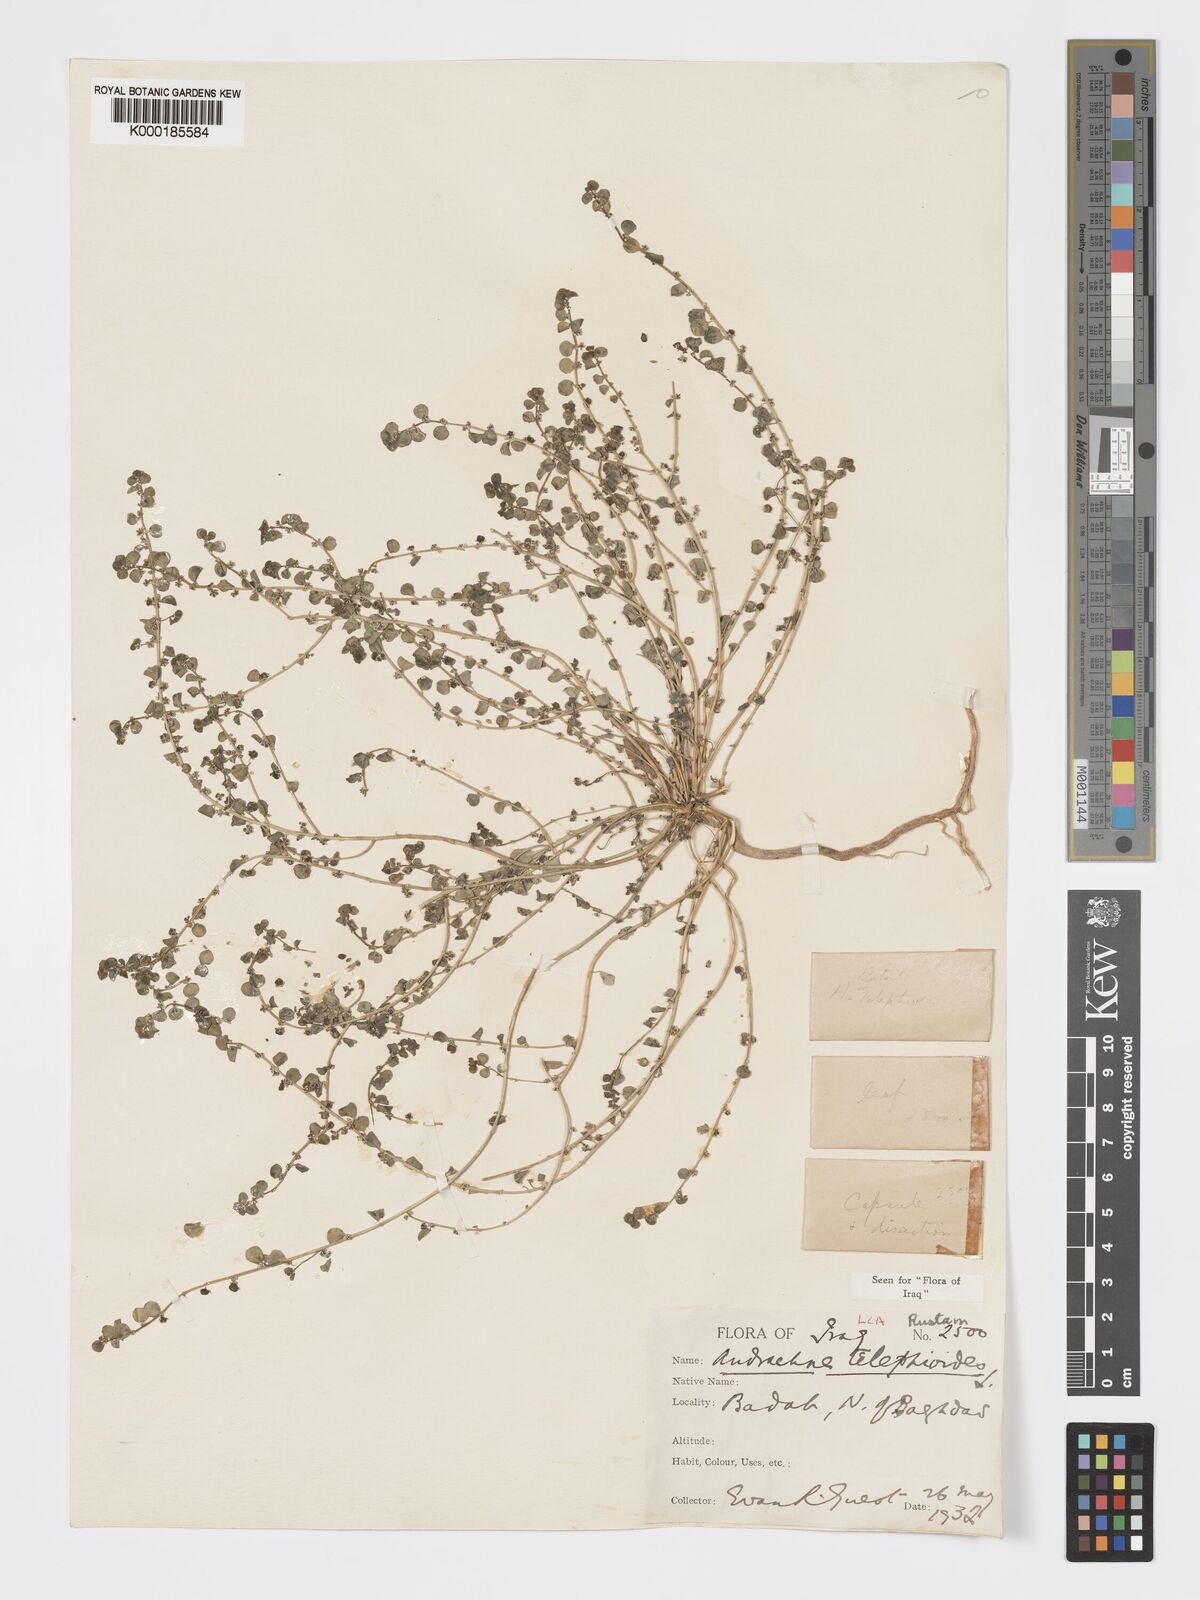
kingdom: Plantae
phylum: Tracheophyta
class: Magnoliopsida
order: Malpighiales
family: Phyllanthaceae
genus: Andrachne
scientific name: Andrachne telephioides
